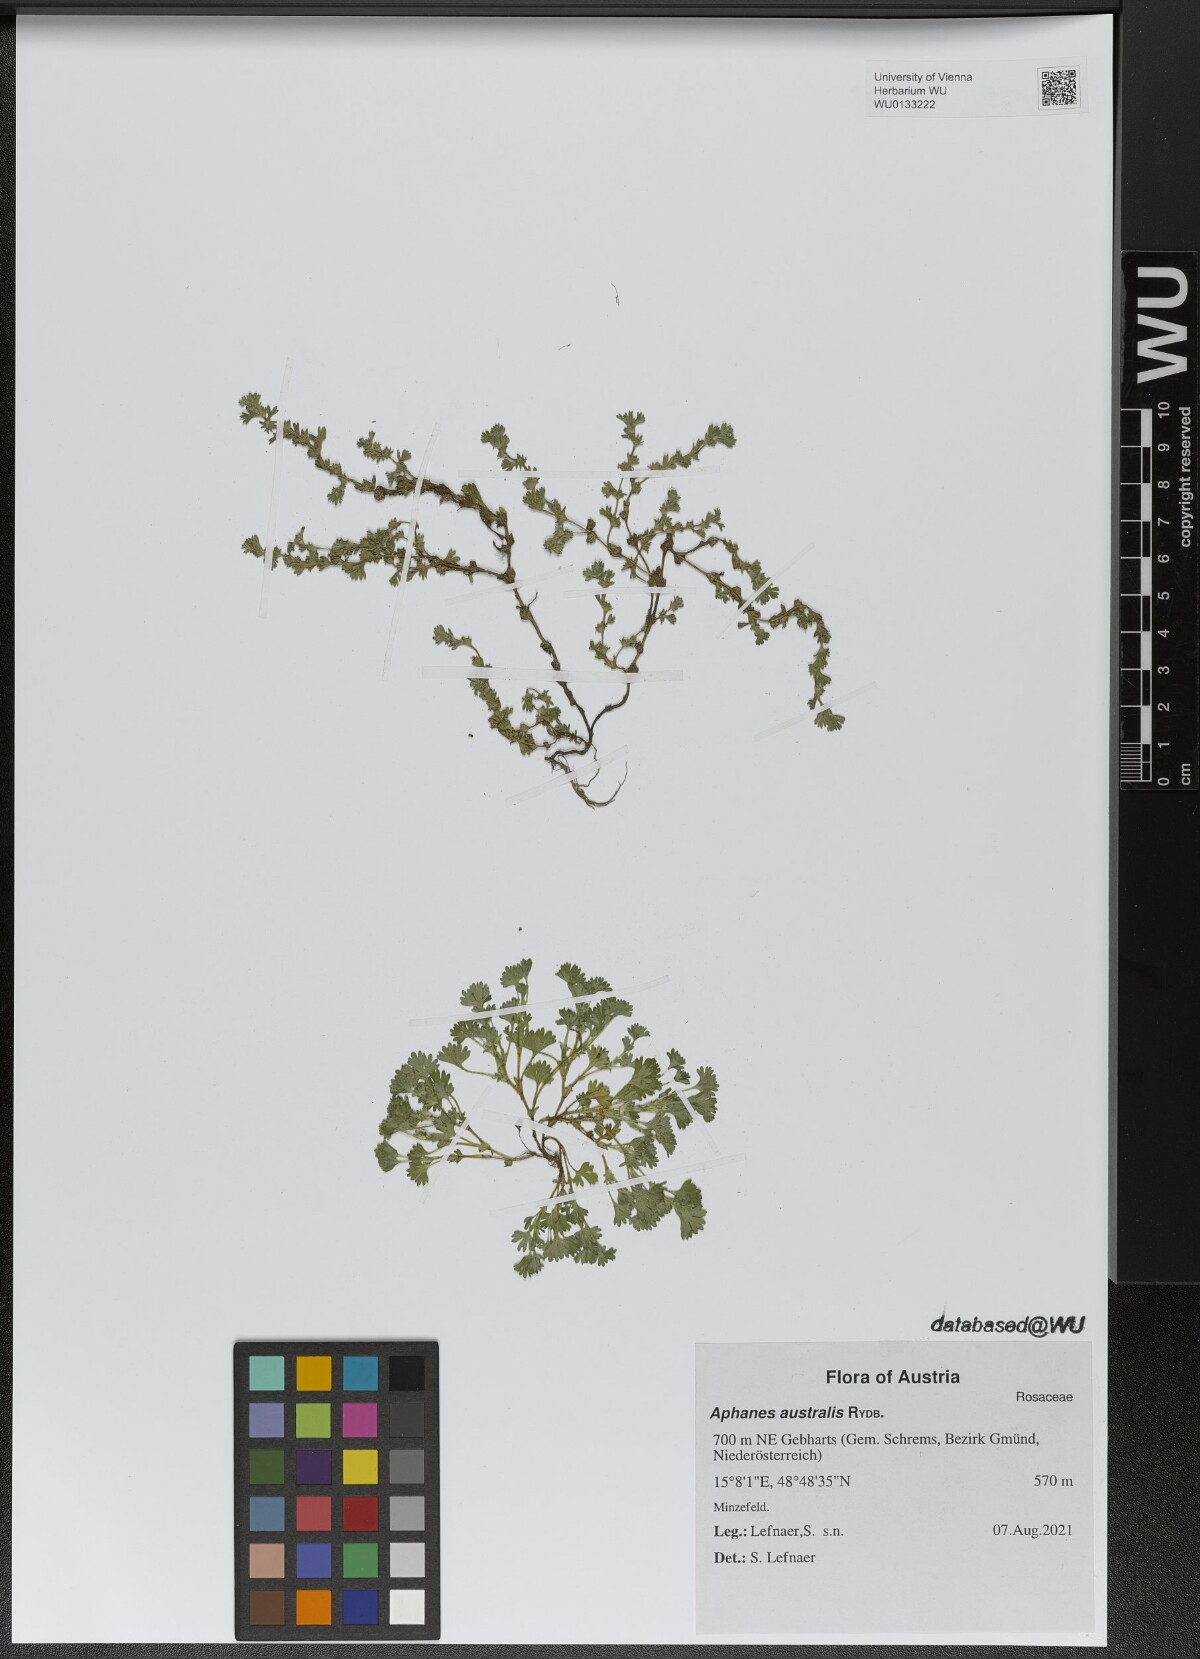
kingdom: Plantae
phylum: Tracheophyta
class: Magnoliopsida
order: Rosales
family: Rosaceae
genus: Aphanes
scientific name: Aphanes australis
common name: Slender parsley-piert
